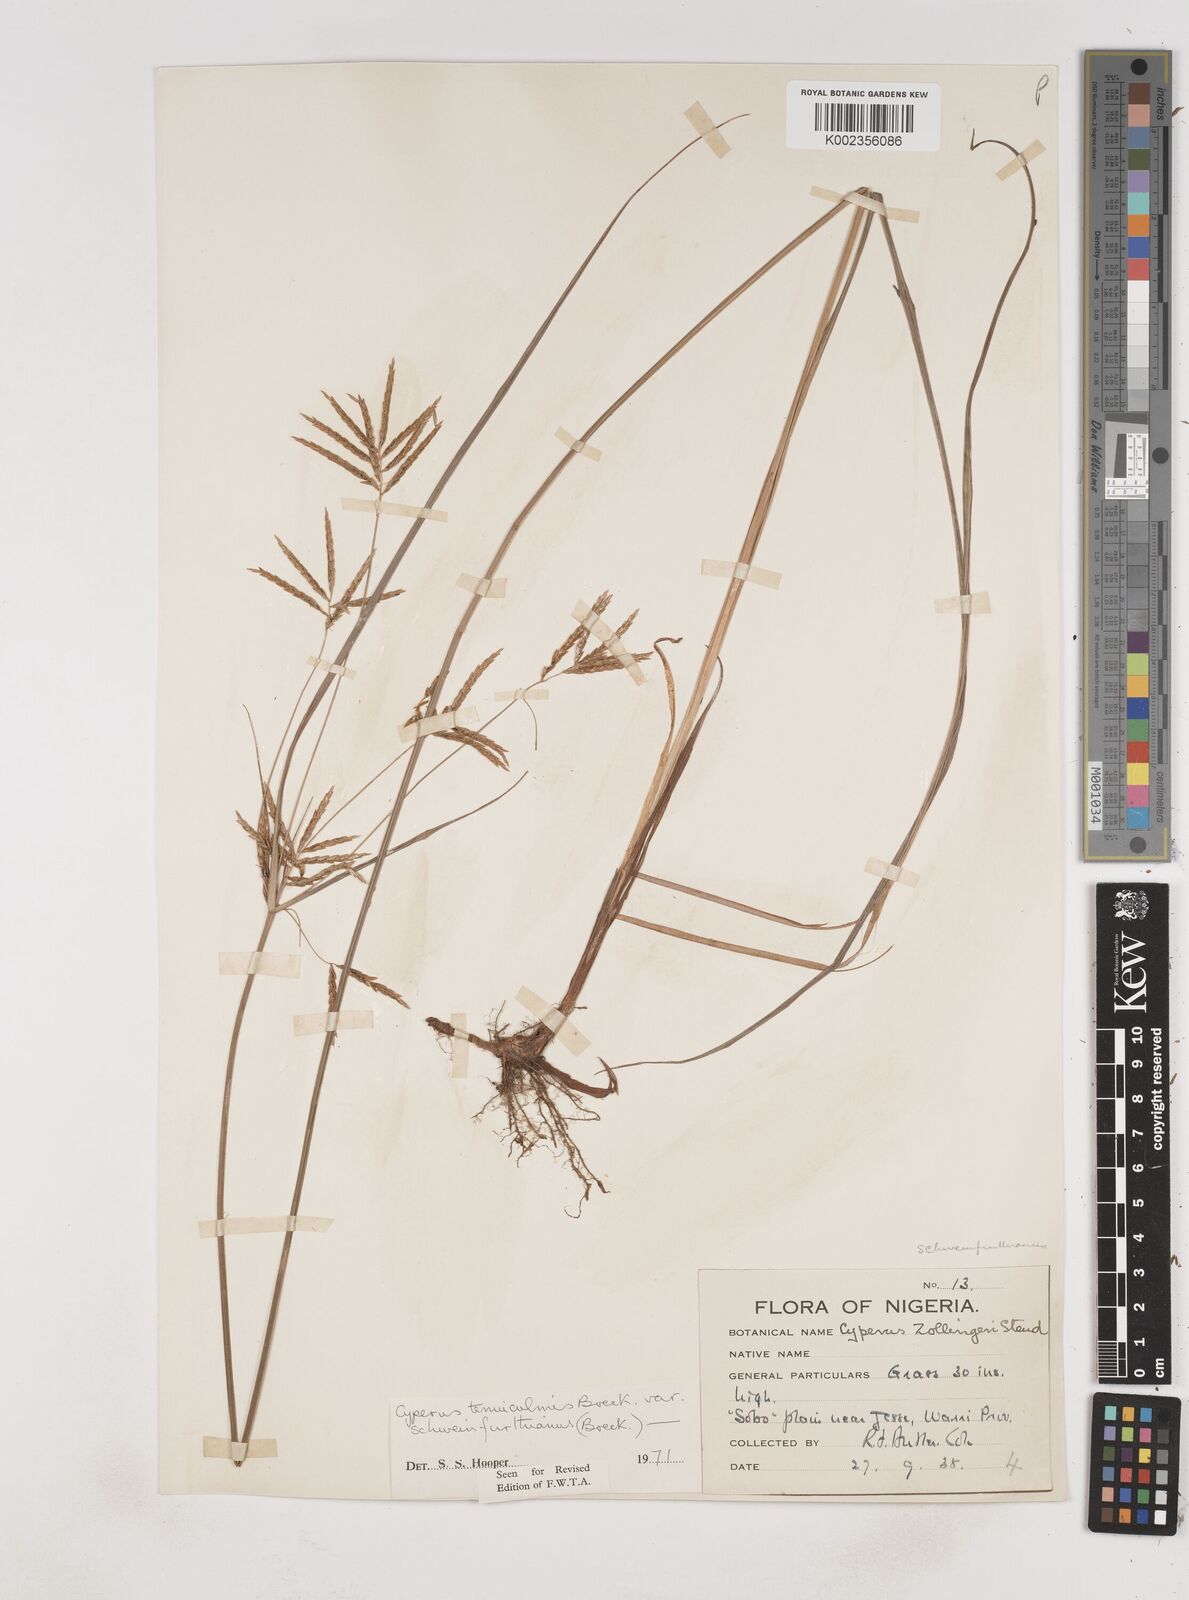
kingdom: Plantae
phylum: Tracheophyta
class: Liliopsida
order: Poales
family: Cyperaceae
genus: Cyperus
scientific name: Cyperus tenuiculmis
